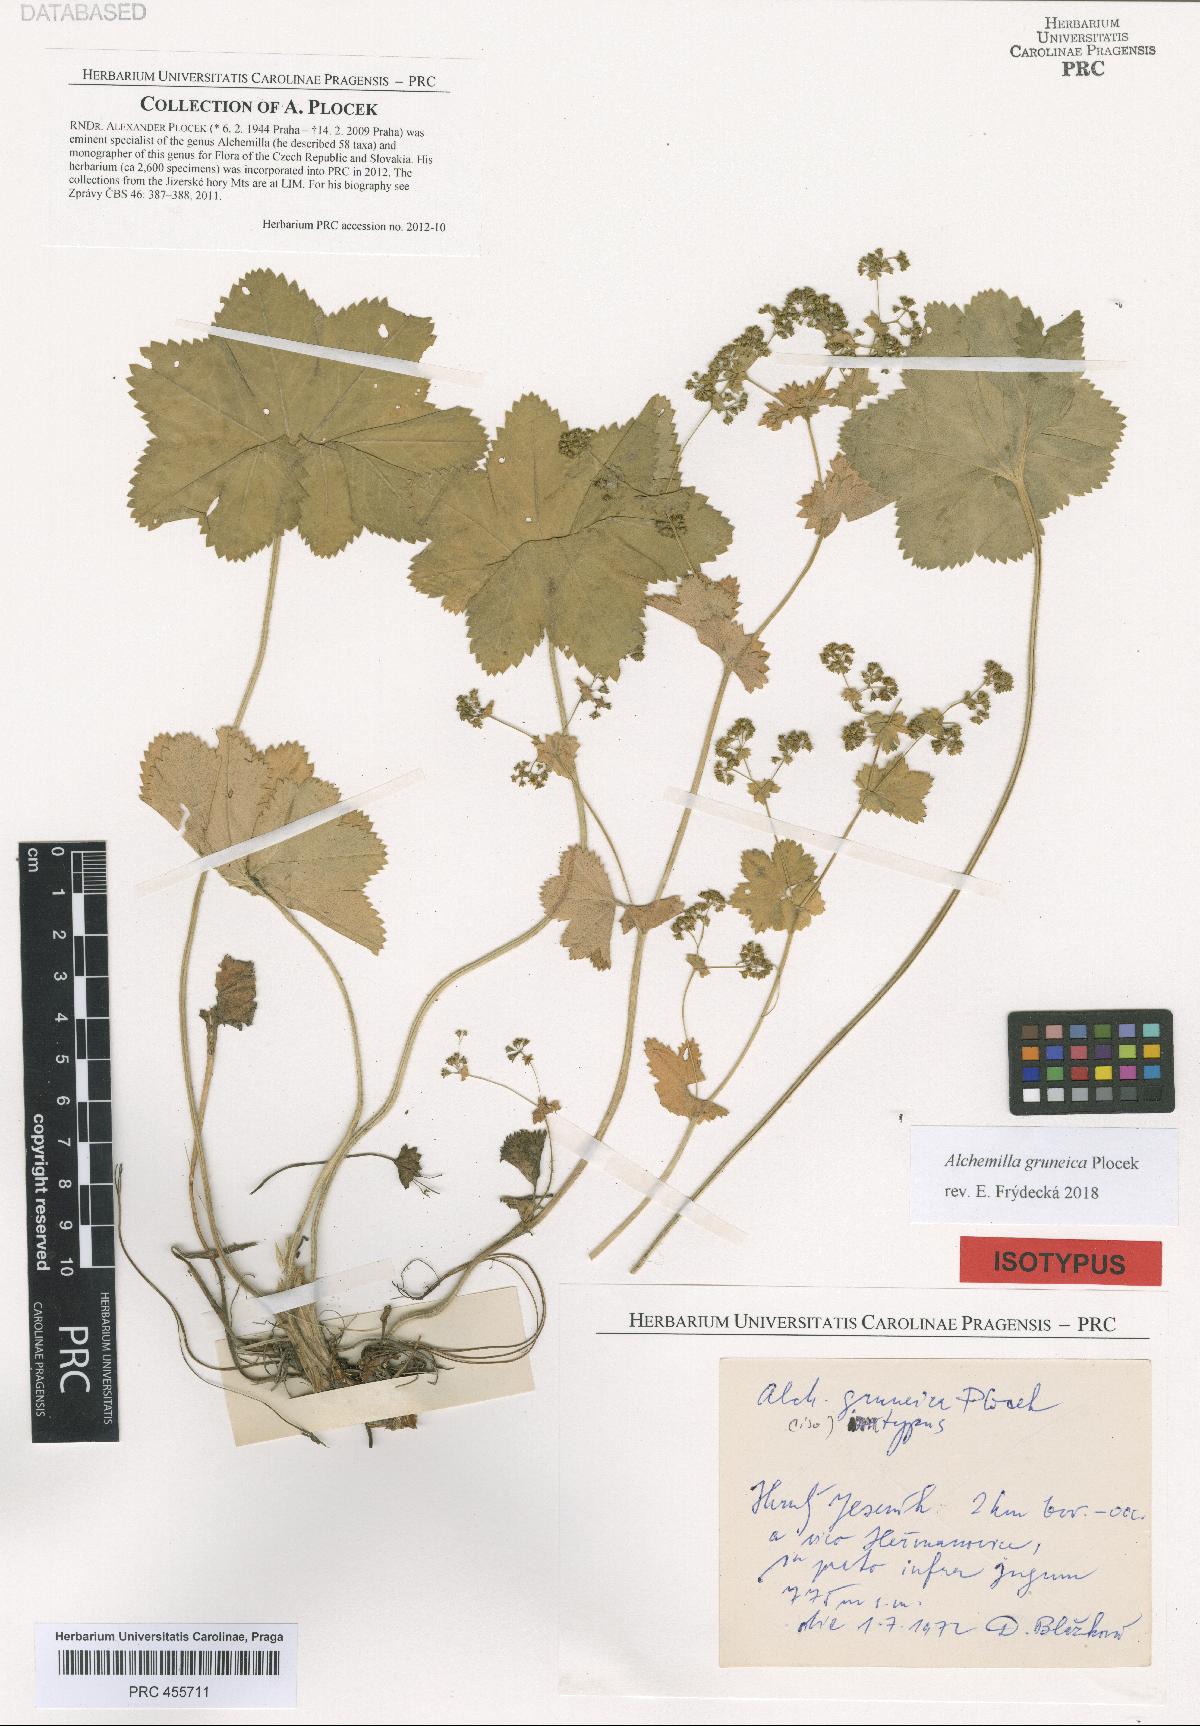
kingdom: Plantae
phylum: Tracheophyta
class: Magnoliopsida
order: Rosales
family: Rosaceae
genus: Alchemilla
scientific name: Alchemilla gruneica
